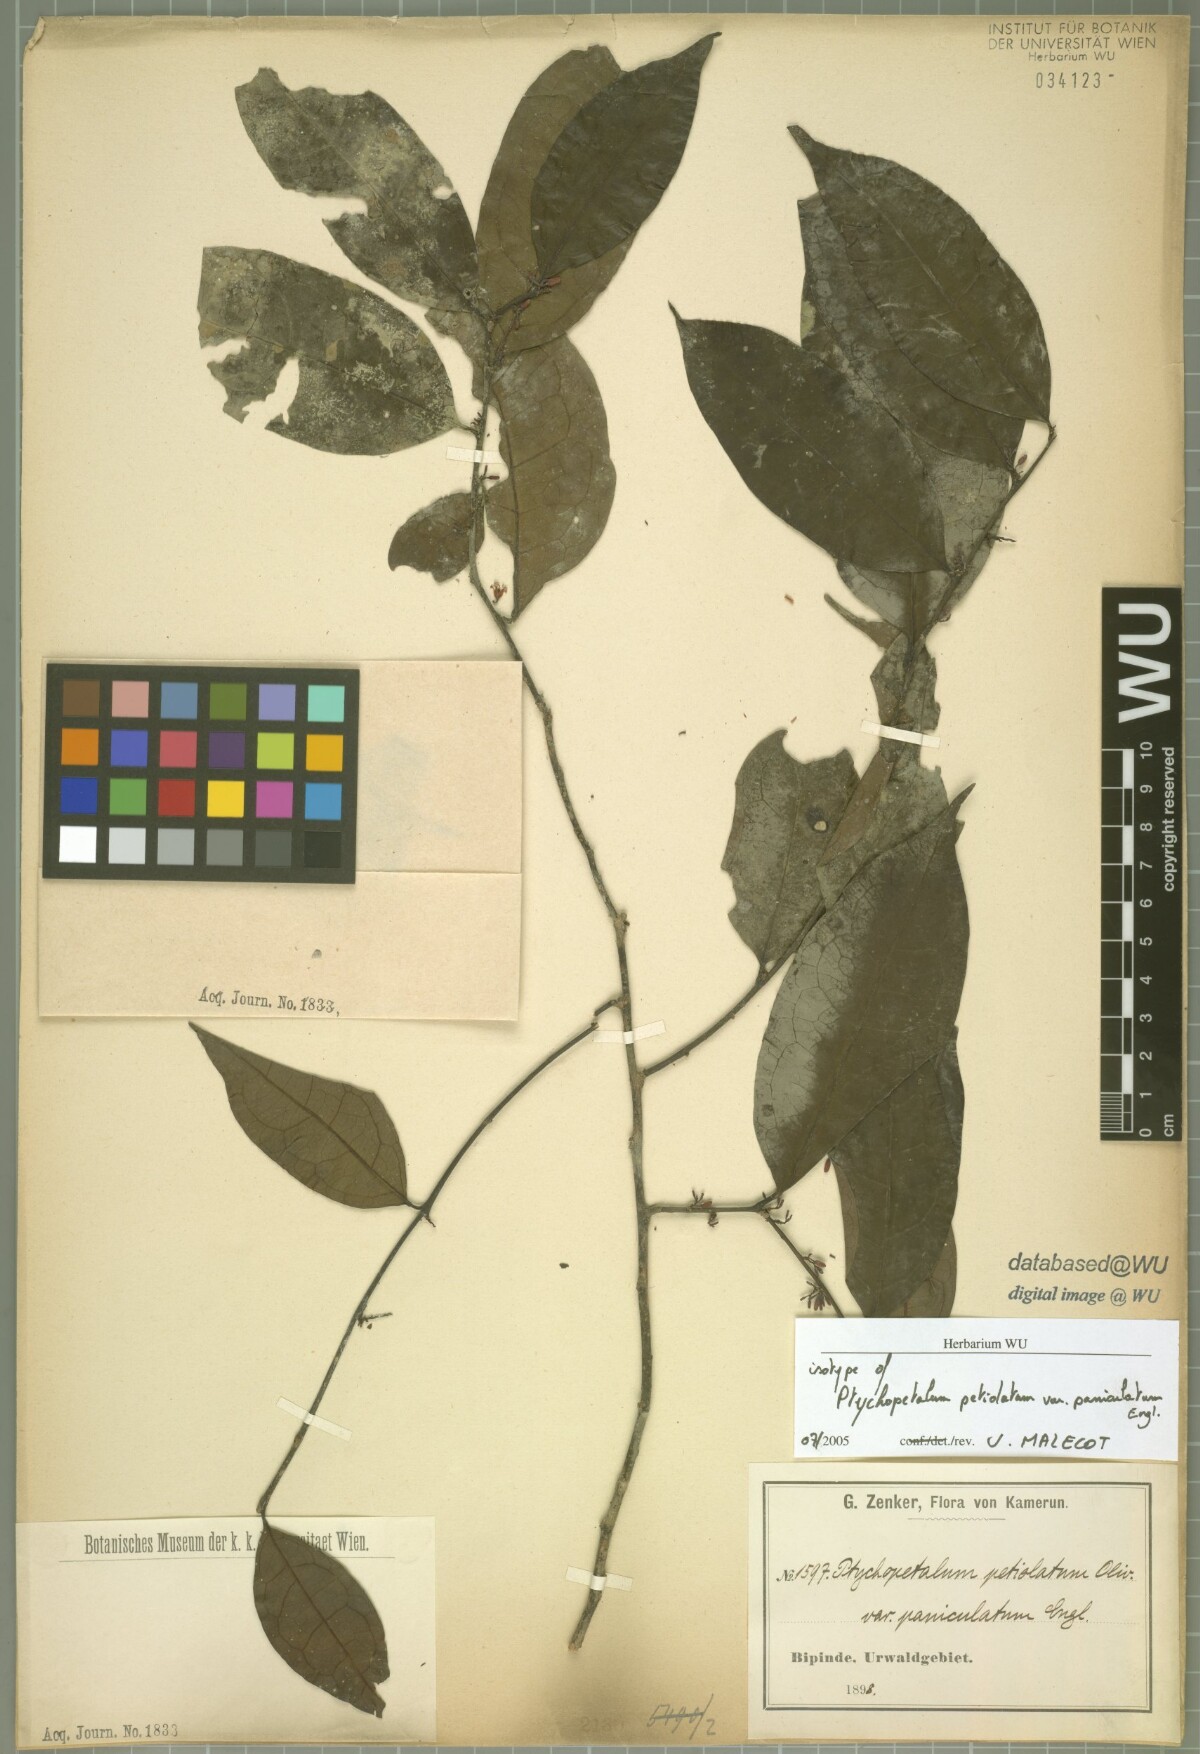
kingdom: Plantae
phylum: Tracheophyta
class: Magnoliopsida
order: Santalales
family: Olacaceae
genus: Ptychopetalum
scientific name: Ptychopetalum petiolatum
